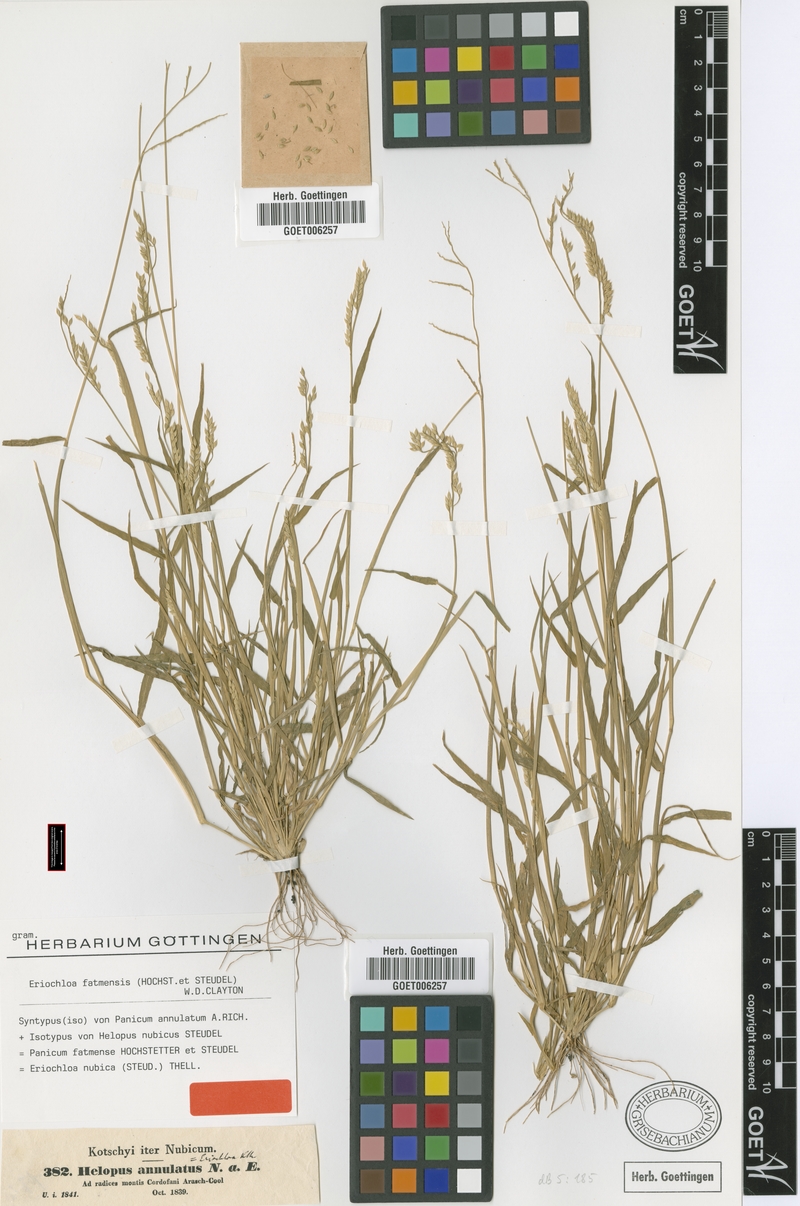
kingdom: Plantae
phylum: Tracheophyta
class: Liliopsida
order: Poales
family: Poaceae
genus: Eriochloa
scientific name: Eriochloa barbatus
